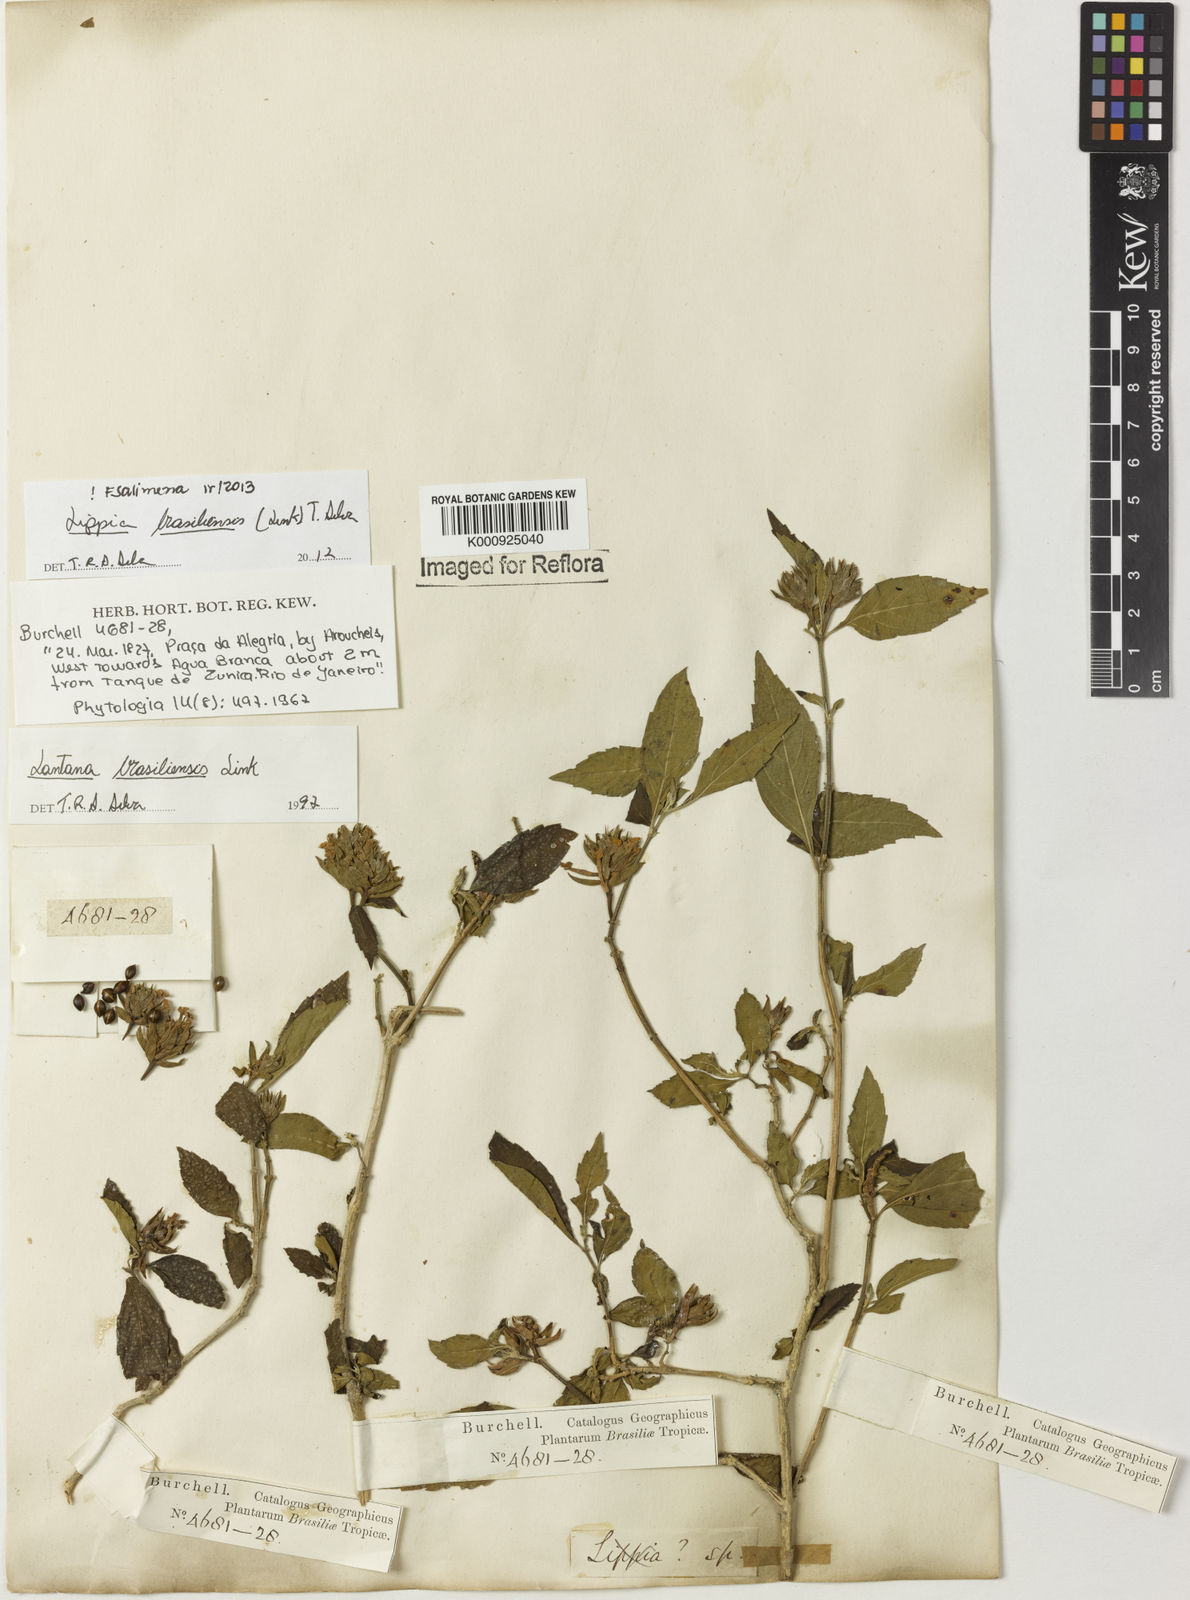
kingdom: Plantae
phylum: Tracheophyta
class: Magnoliopsida
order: Lamiales
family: Verbenaceae
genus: Lippia
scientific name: Lippia brasiliensis
